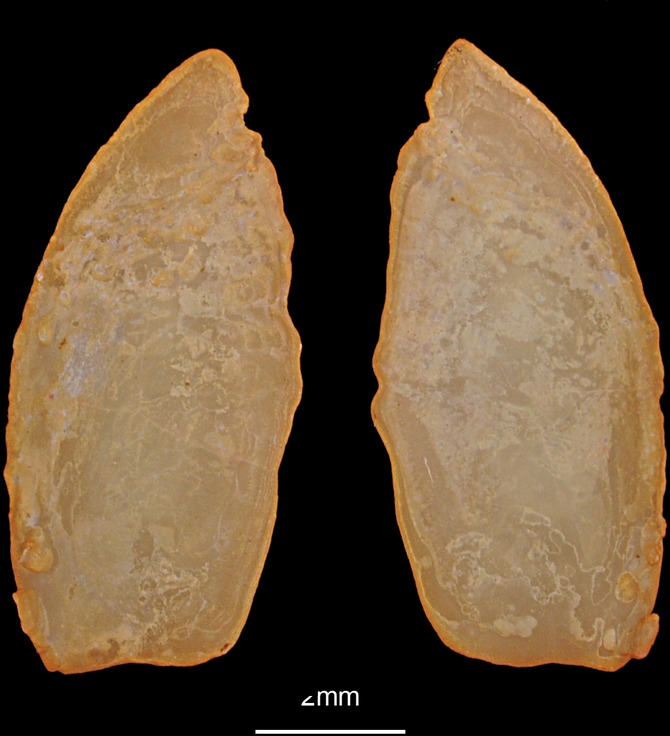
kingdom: Animalia
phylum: Chordata
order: Perciformes
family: Trachinidae
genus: Trachinus
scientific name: Trachinus draco
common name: Greater weever
